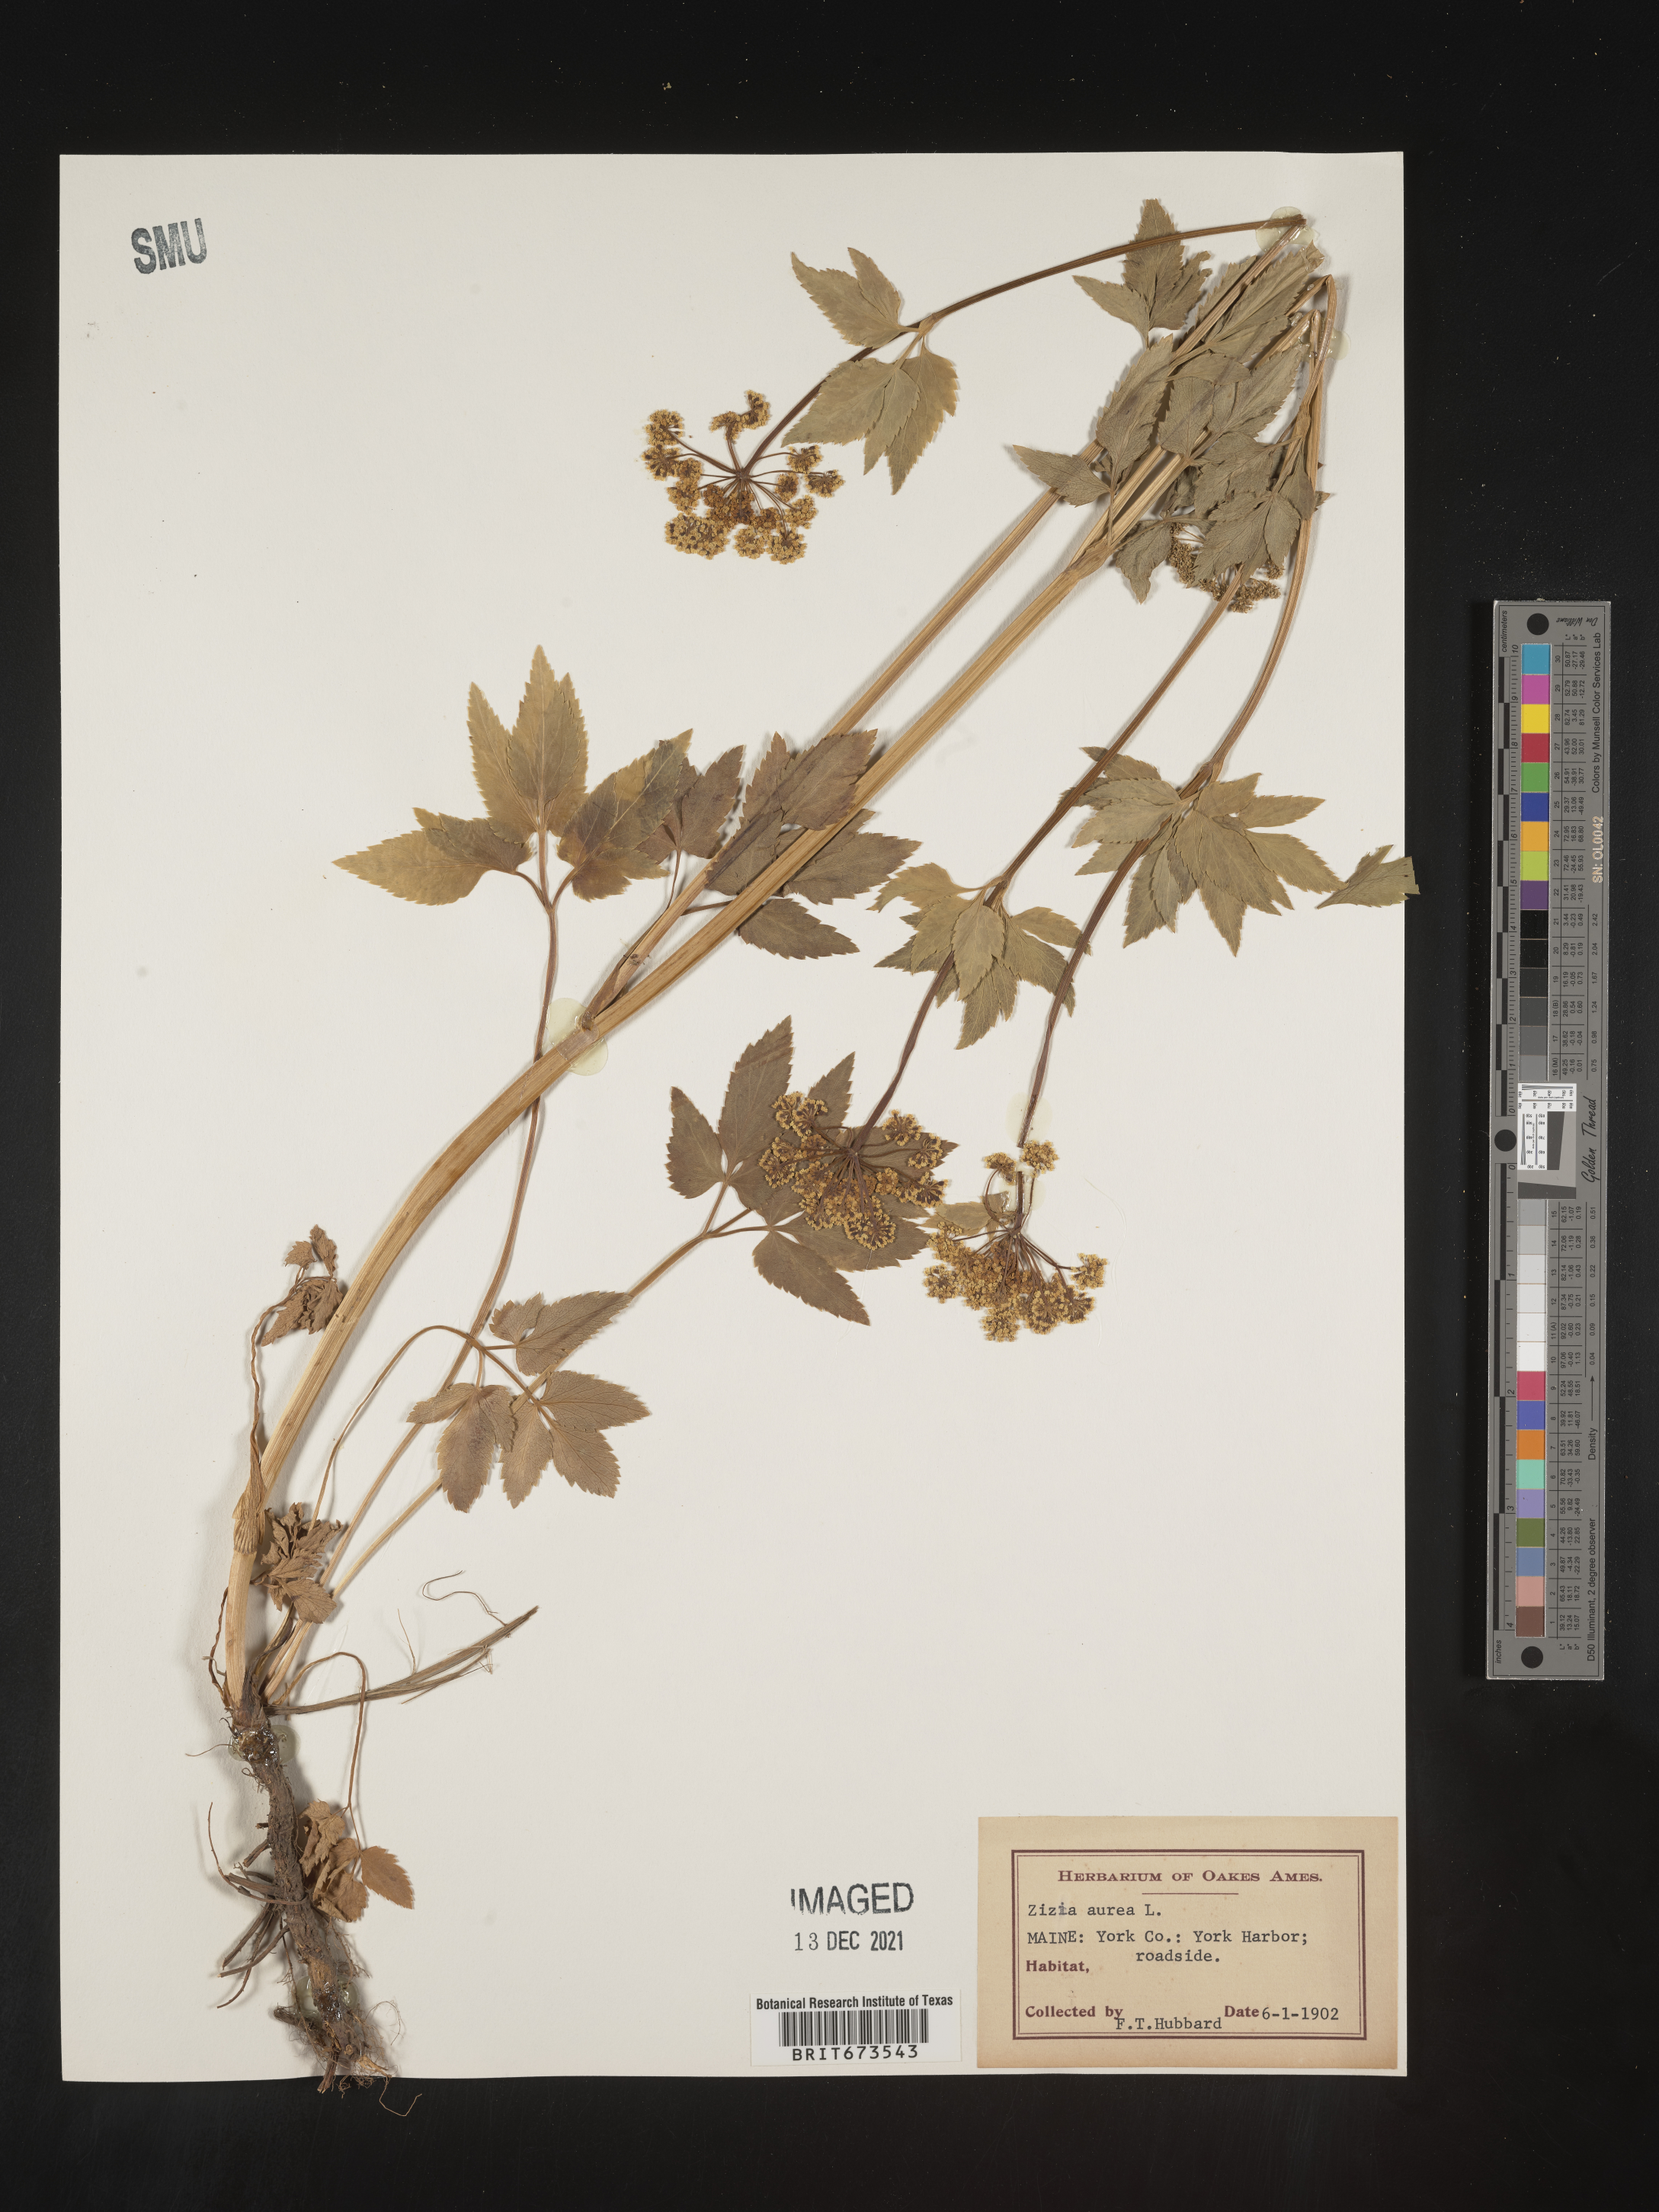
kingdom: Plantae
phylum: Tracheophyta
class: Magnoliopsida
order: Apiales
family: Apiaceae
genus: Zizia
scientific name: Zizia aurea
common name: Golden alexanders
